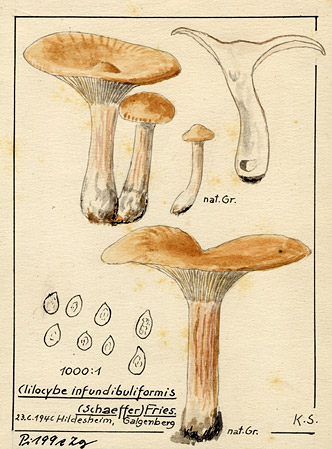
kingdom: Fungi
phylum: Basidiomycota
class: Agaricomycetes
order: Agaricales
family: Tricholomataceae
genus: Infundibulicybe
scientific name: Infundibulicybe gibba
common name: Common funnel
